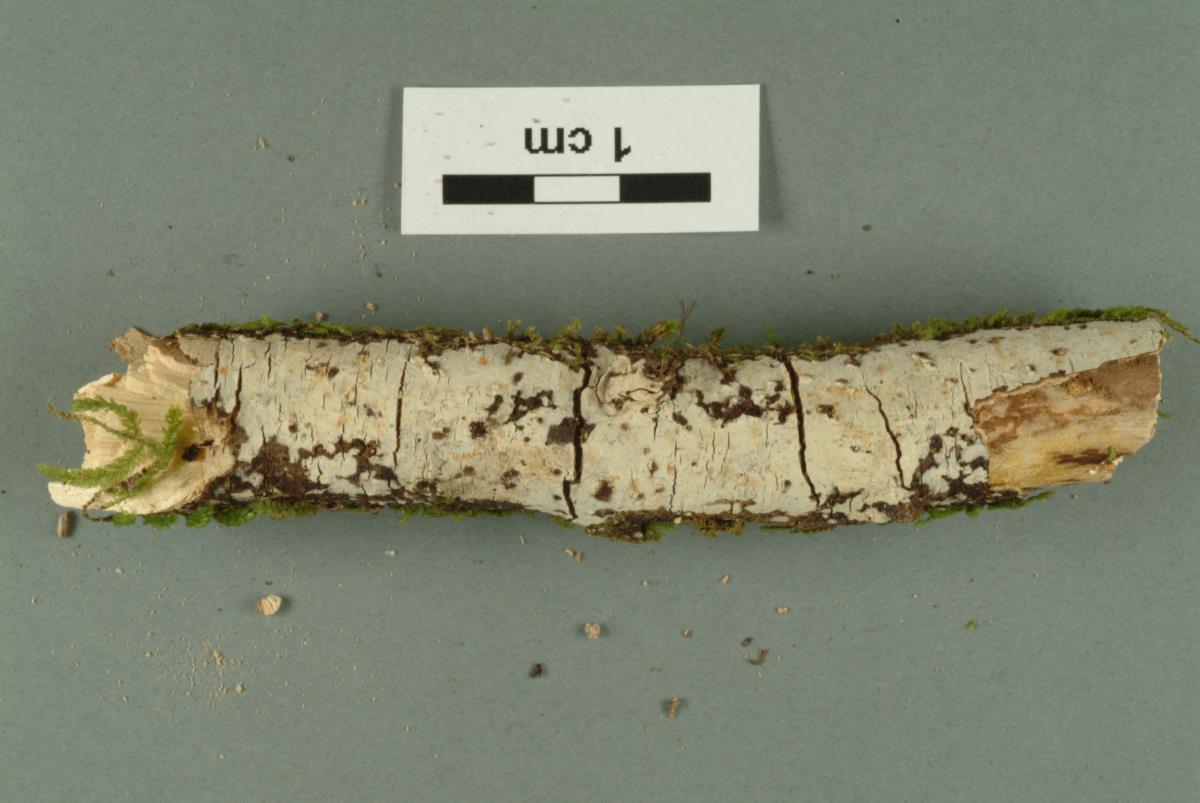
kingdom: Fungi
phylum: Basidiomycota
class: Agaricomycetes
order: Russulales
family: Stereaceae
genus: Gloeocystidiellum
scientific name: Gloeocystidiellum inconstans
